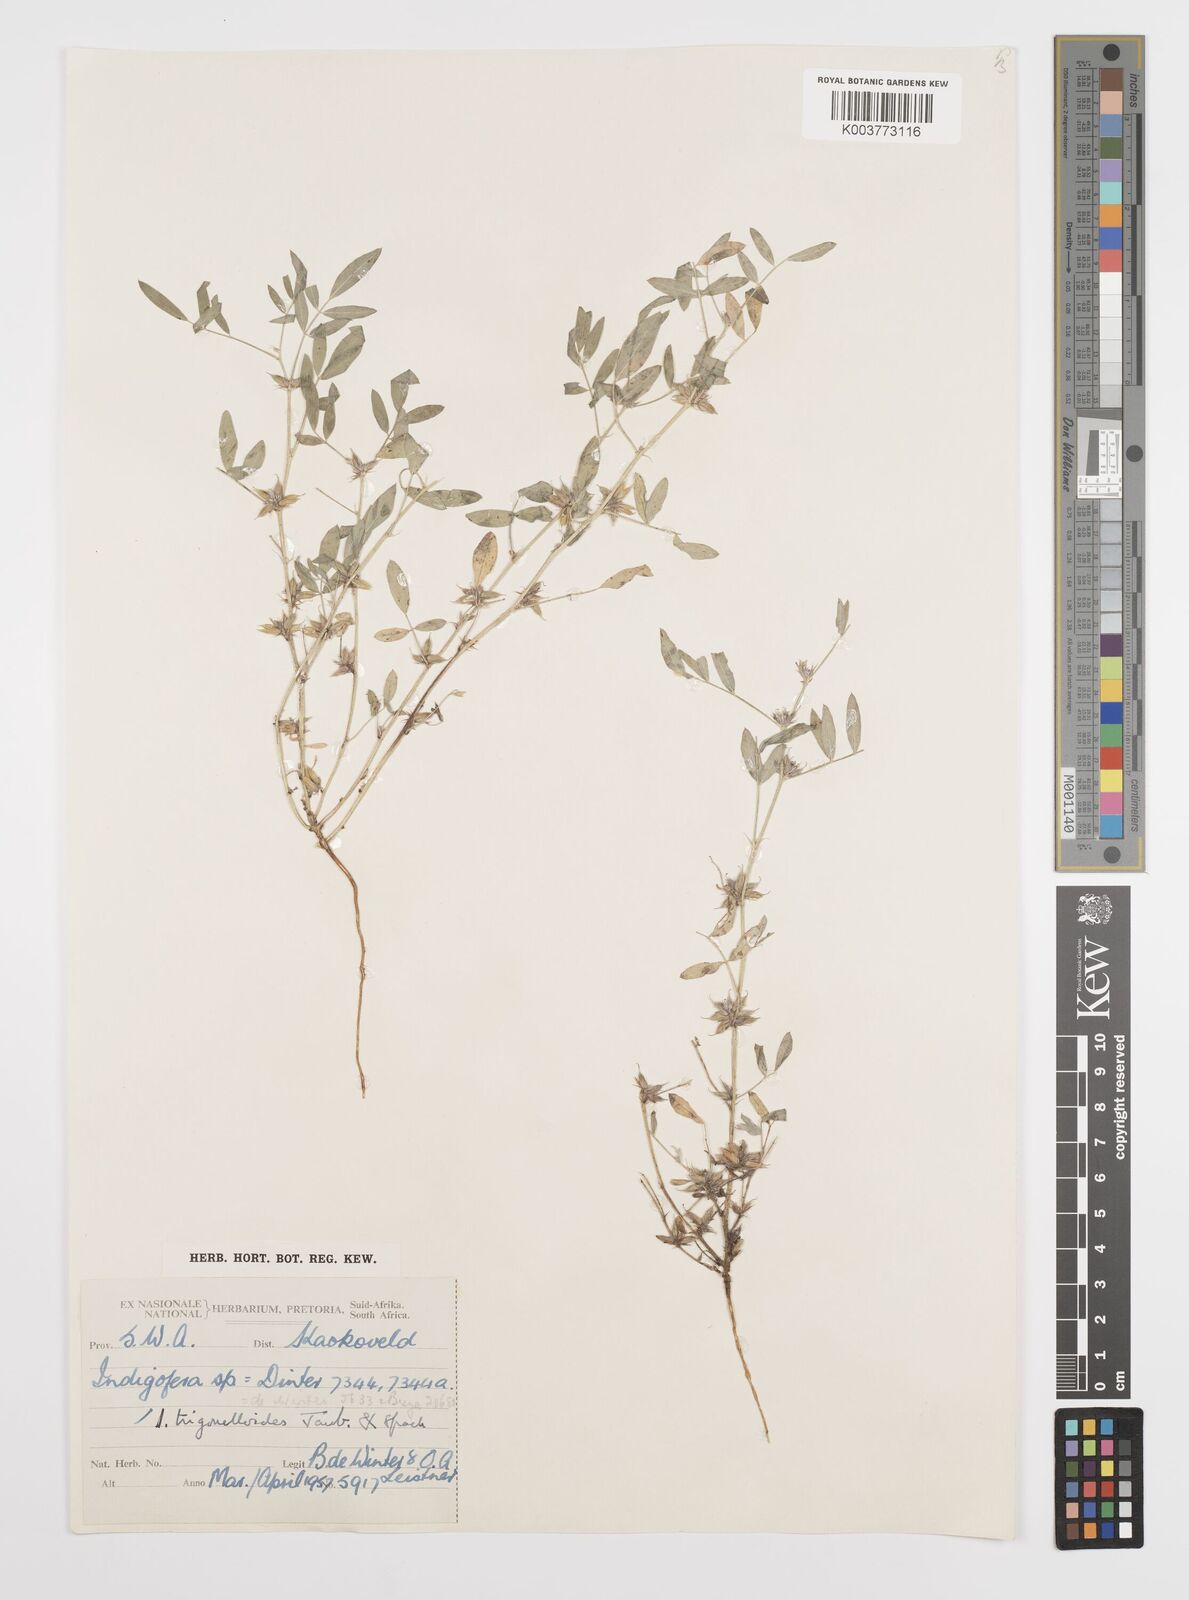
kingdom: Plantae
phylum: Tracheophyta
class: Magnoliopsida
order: Fabales
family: Fabaceae
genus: Indigofera
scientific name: Indigofera trigonelloides
